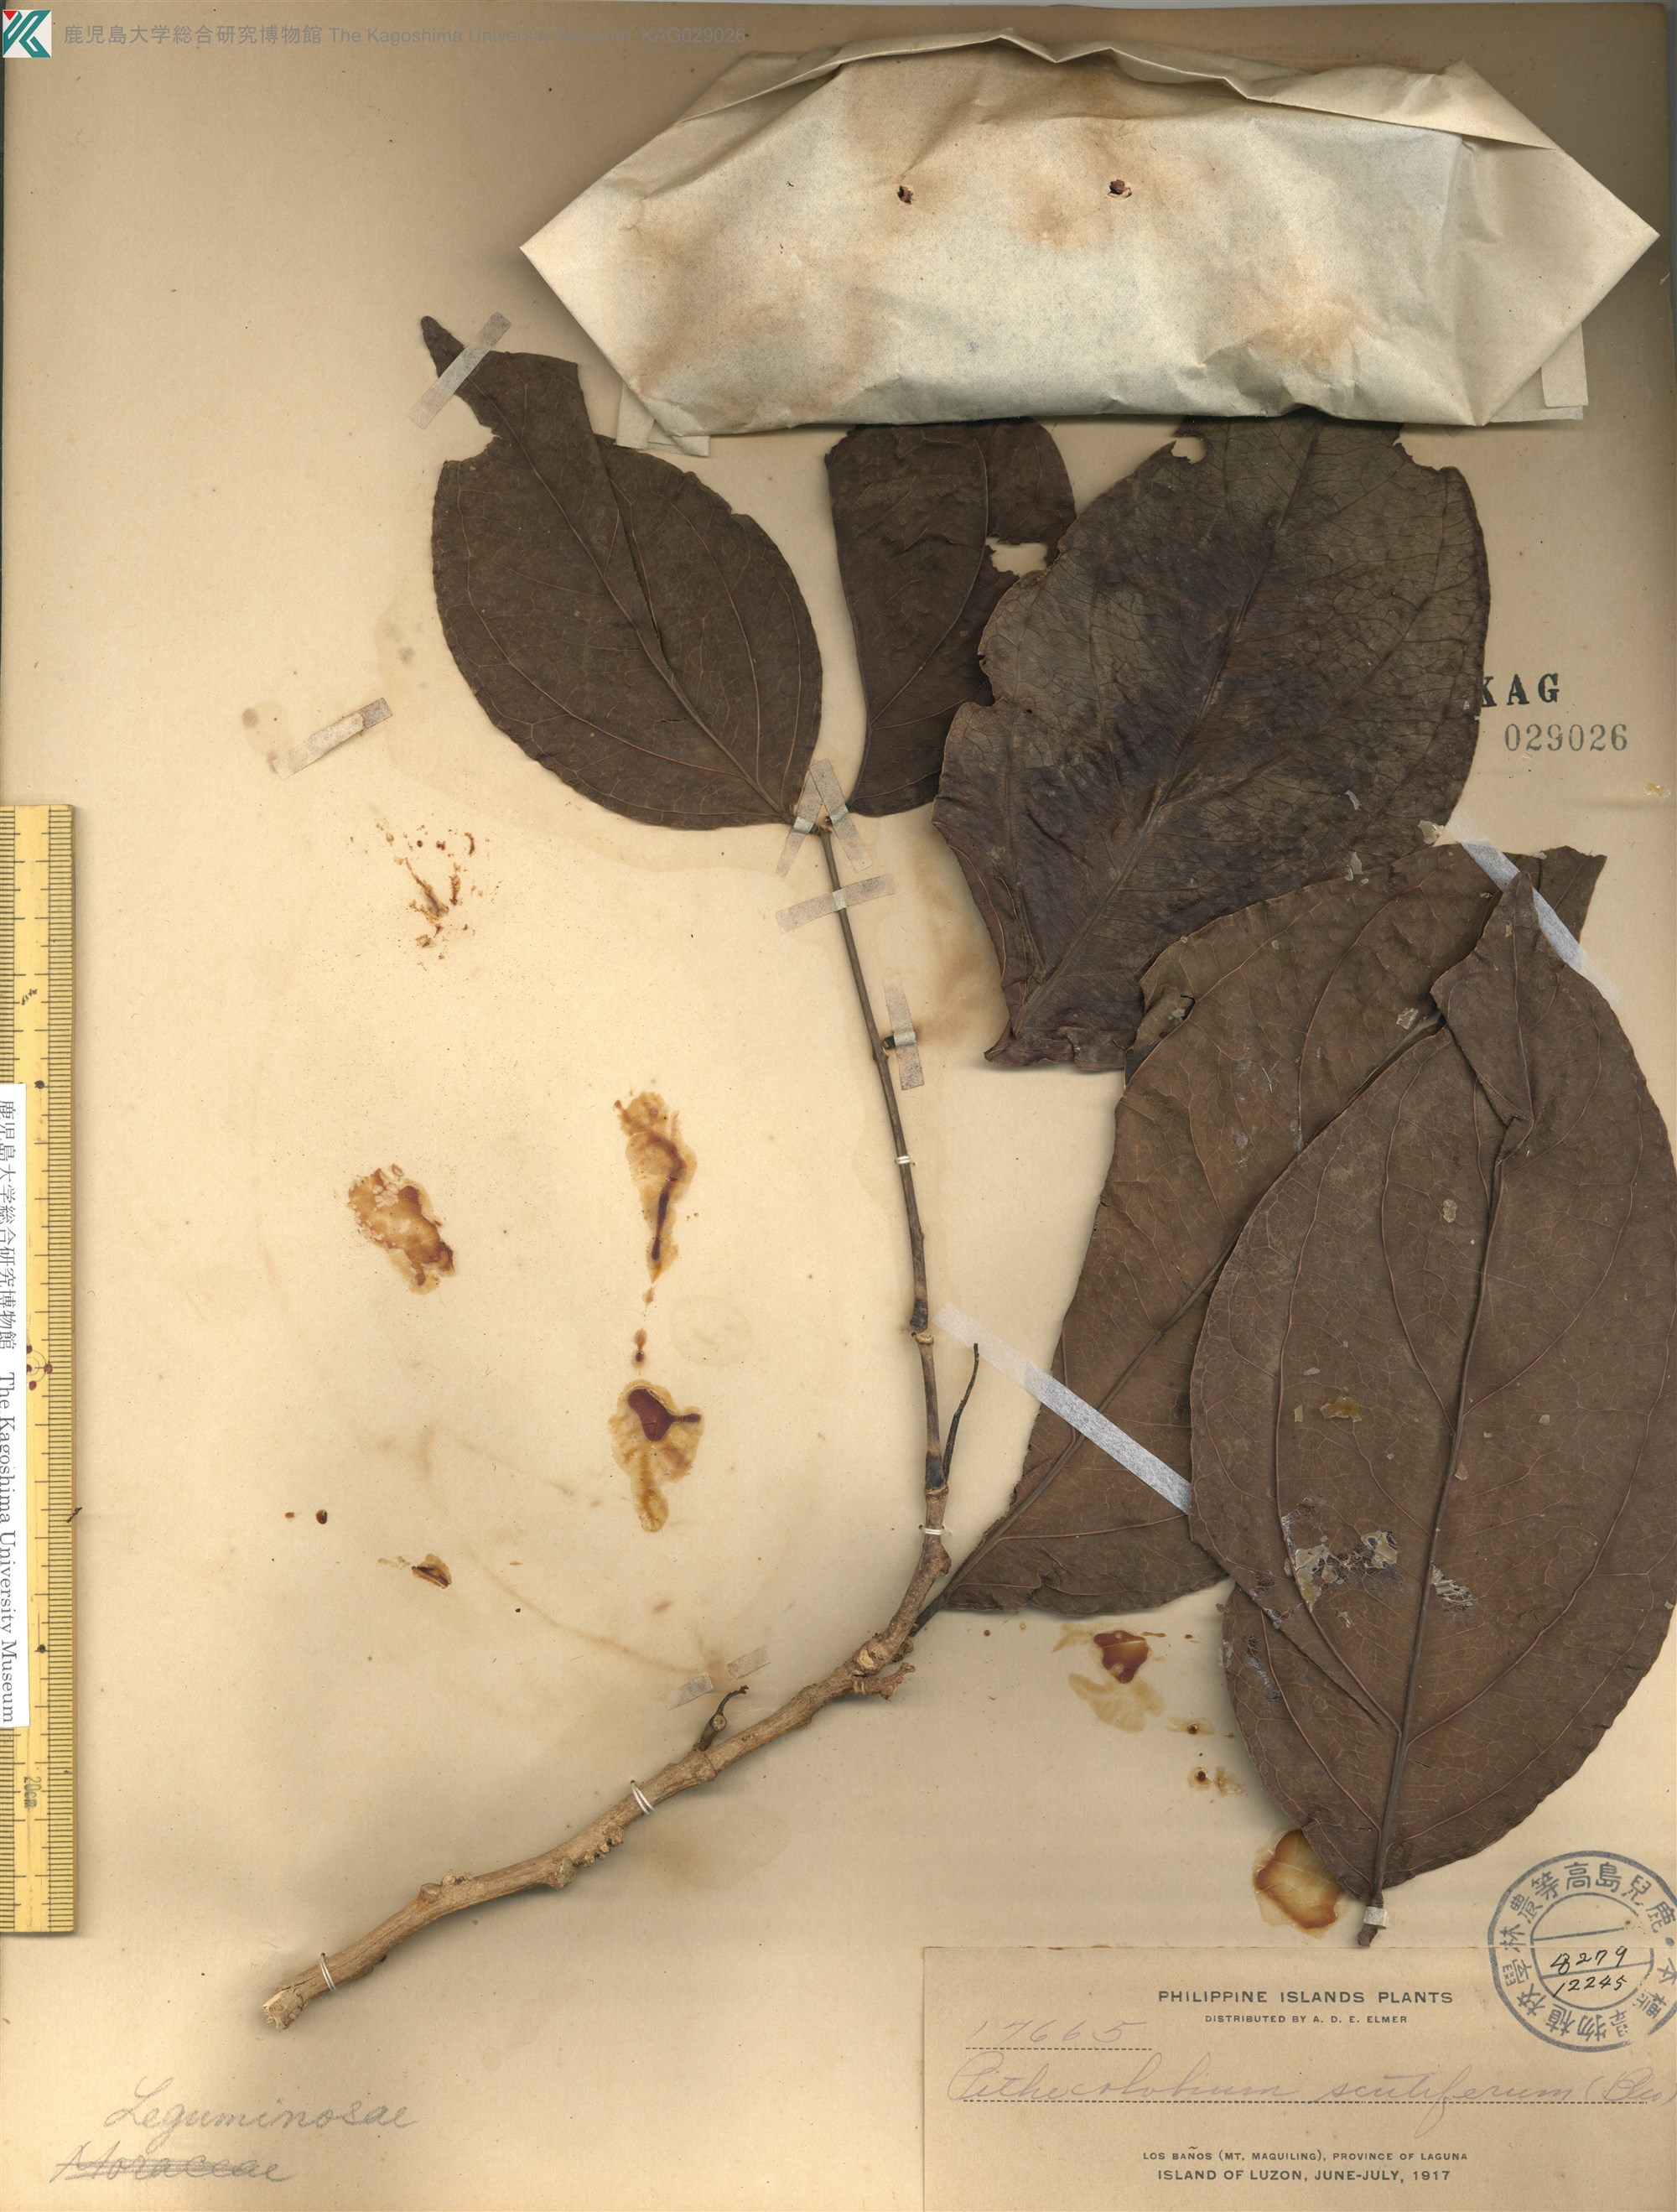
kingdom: Plantae
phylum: Tracheophyta
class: Magnoliopsida
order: Fabales
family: Fabaceae
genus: Archidendron
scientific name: Archidendron scutiferum
